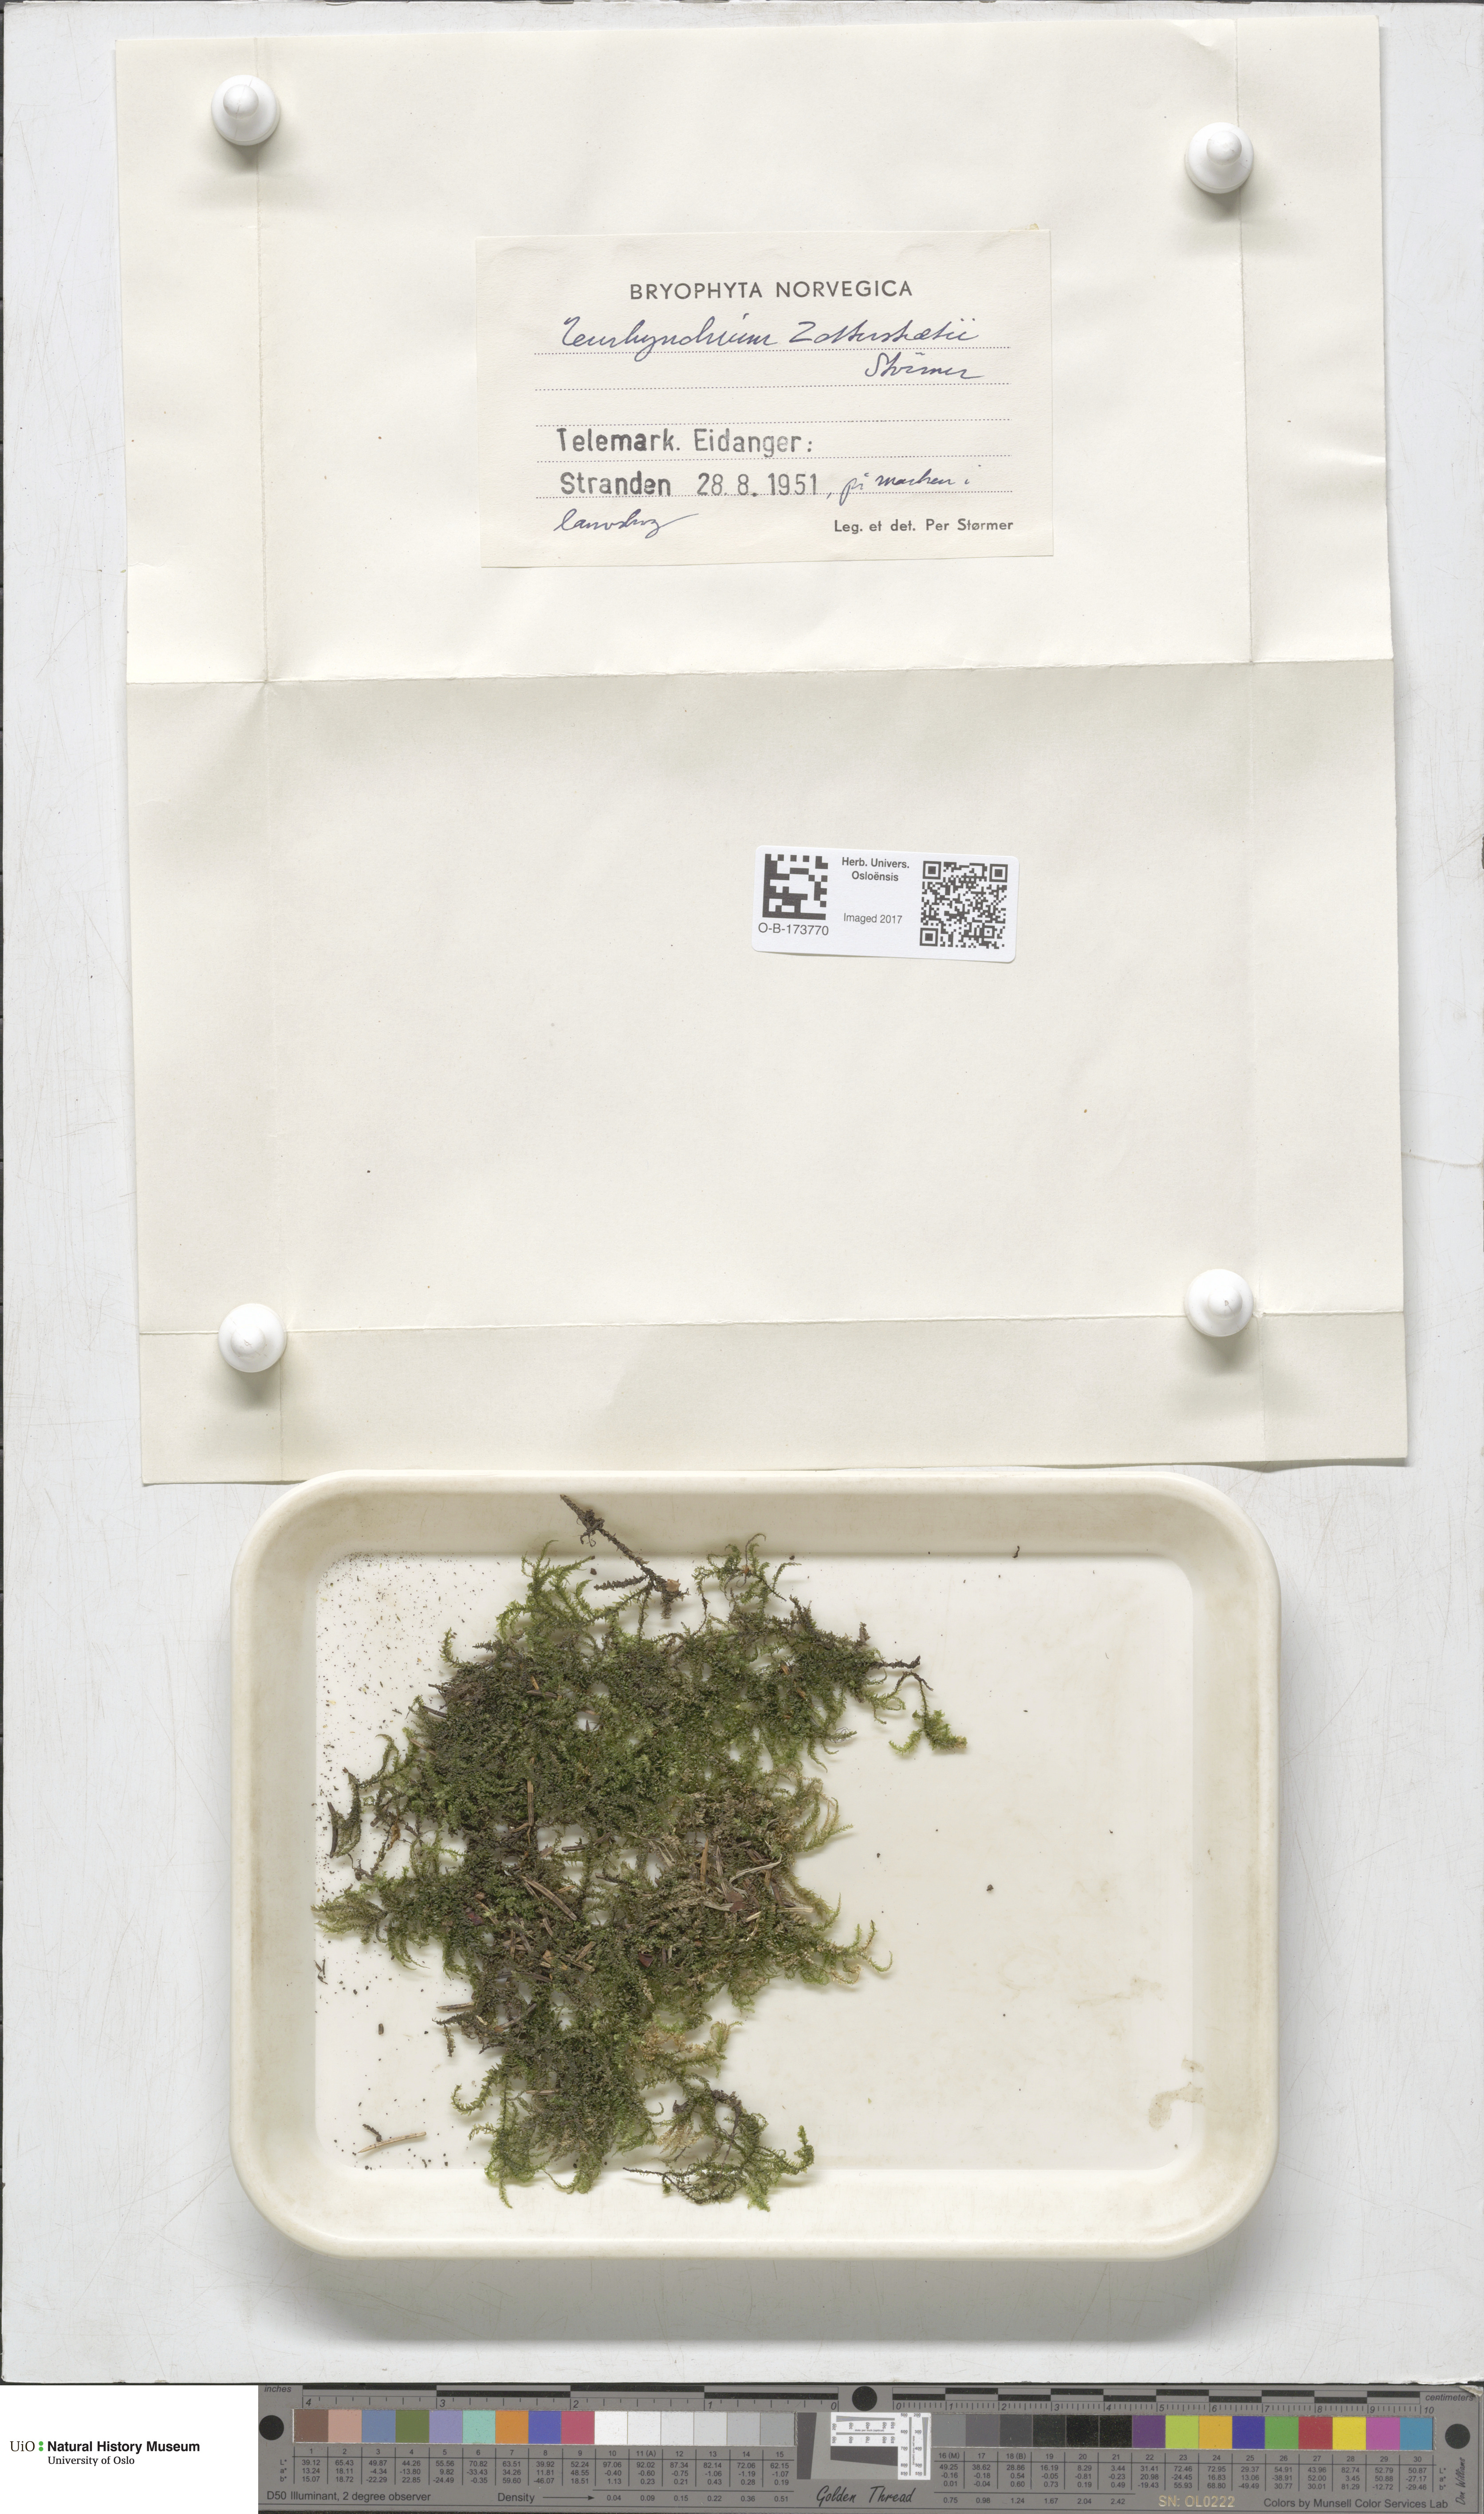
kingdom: Plantae
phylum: Bryophyta
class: Bryopsida
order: Hypnales
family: Brachytheciaceae
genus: Eurhynchium
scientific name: Eurhynchium angustirete
